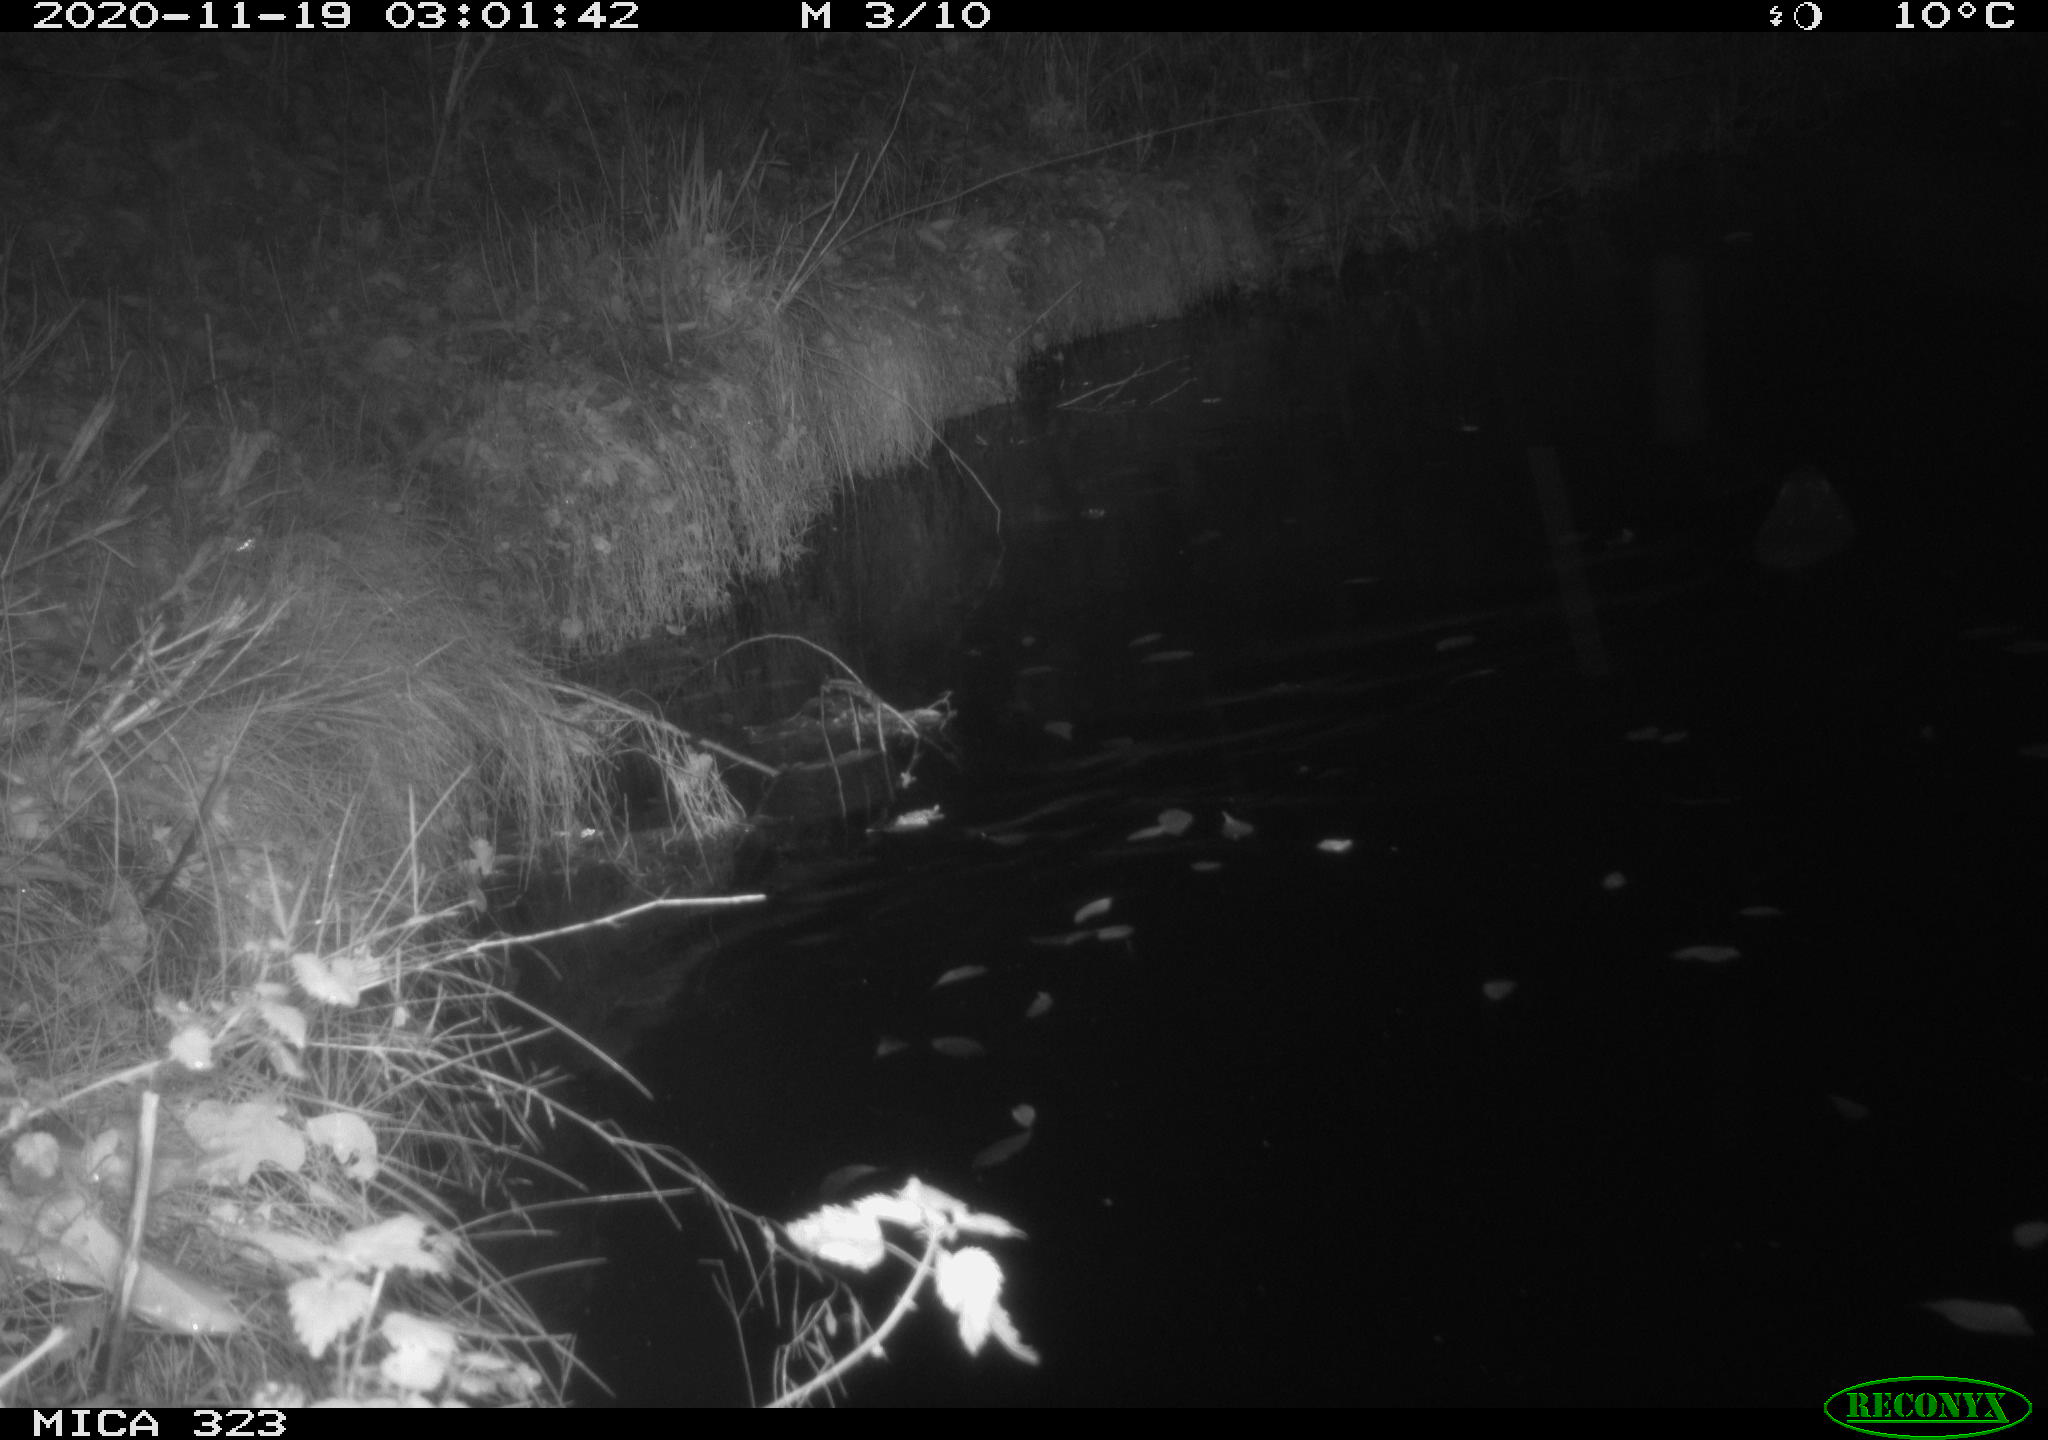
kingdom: Animalia
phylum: Chordata
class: Mammalia
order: Rodentia
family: Myocastoridae
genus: Myocastor
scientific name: Myocastor coypus
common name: Coypu
